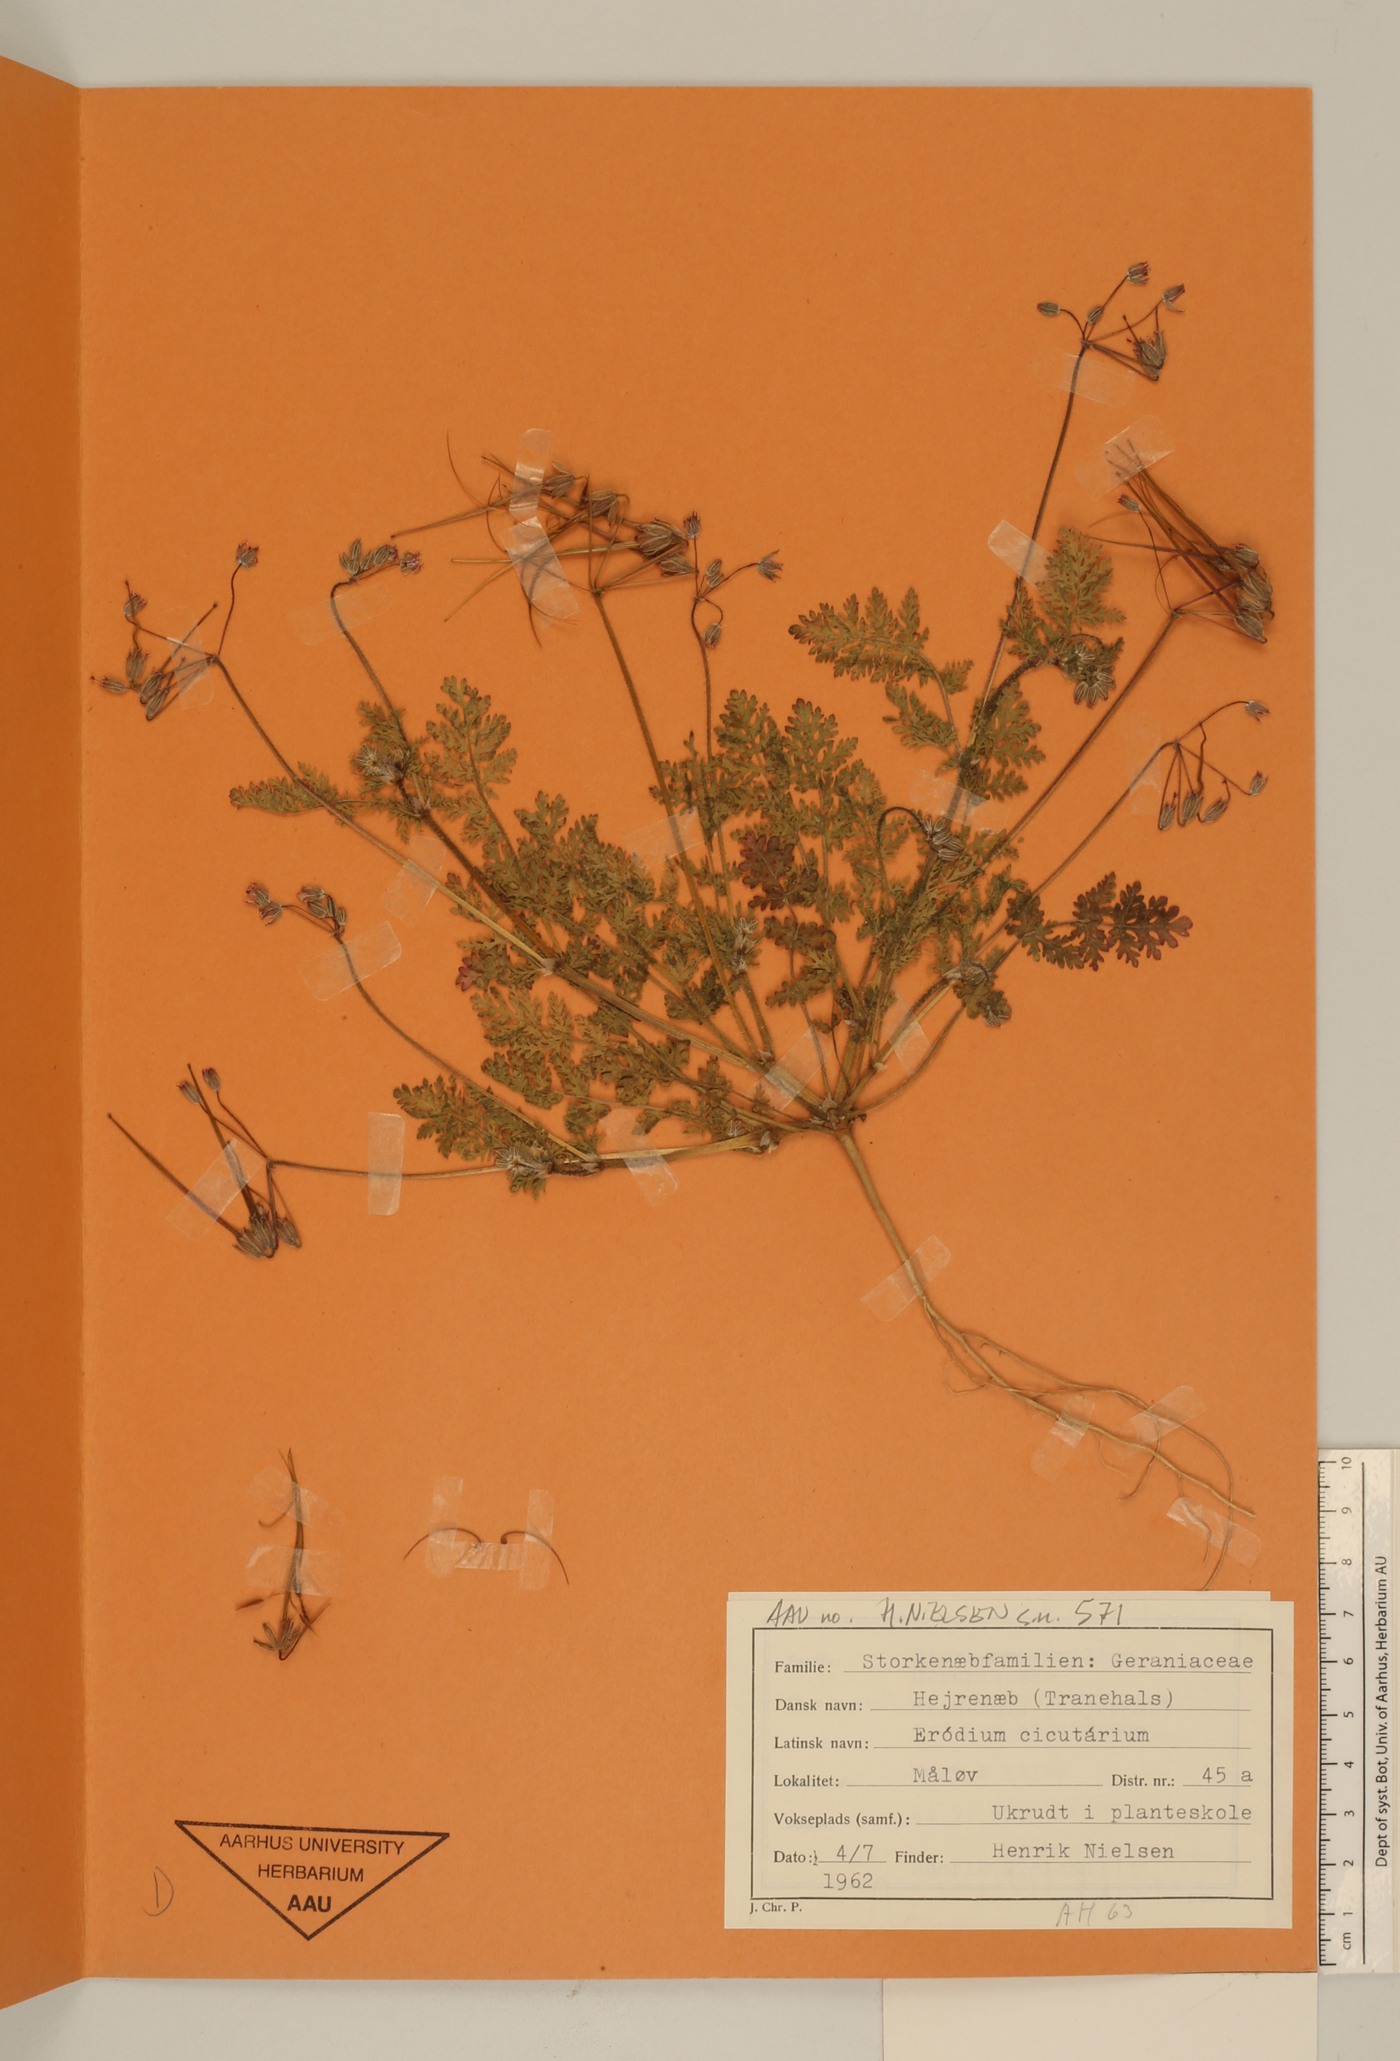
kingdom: Plantae
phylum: Tracheophyta
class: Magnoliopsida
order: Geraniales
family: Geraniaceae
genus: Erodium
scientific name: Erodium cicutarium
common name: Common stork's-bill
